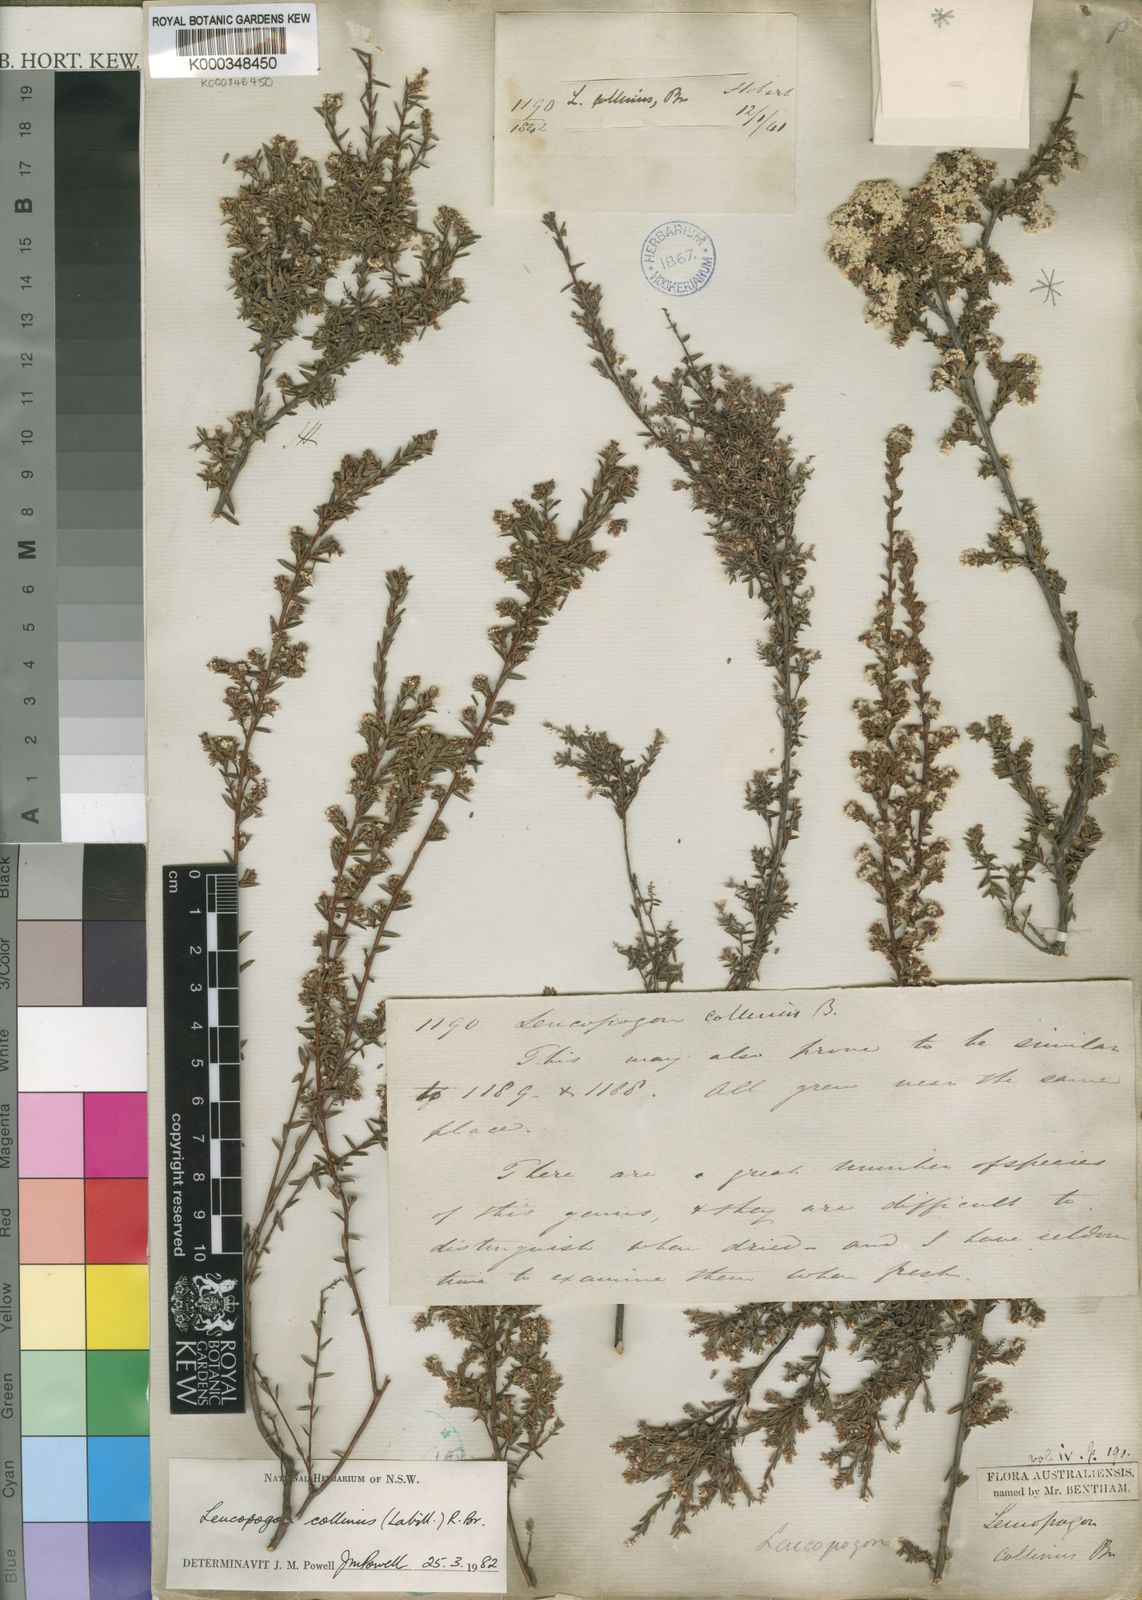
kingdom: Plantae
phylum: Tracheophyta
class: Magnoliopsida
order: Ericales
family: Ericaceae
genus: Leucopogon
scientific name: Leucopogon collinus
